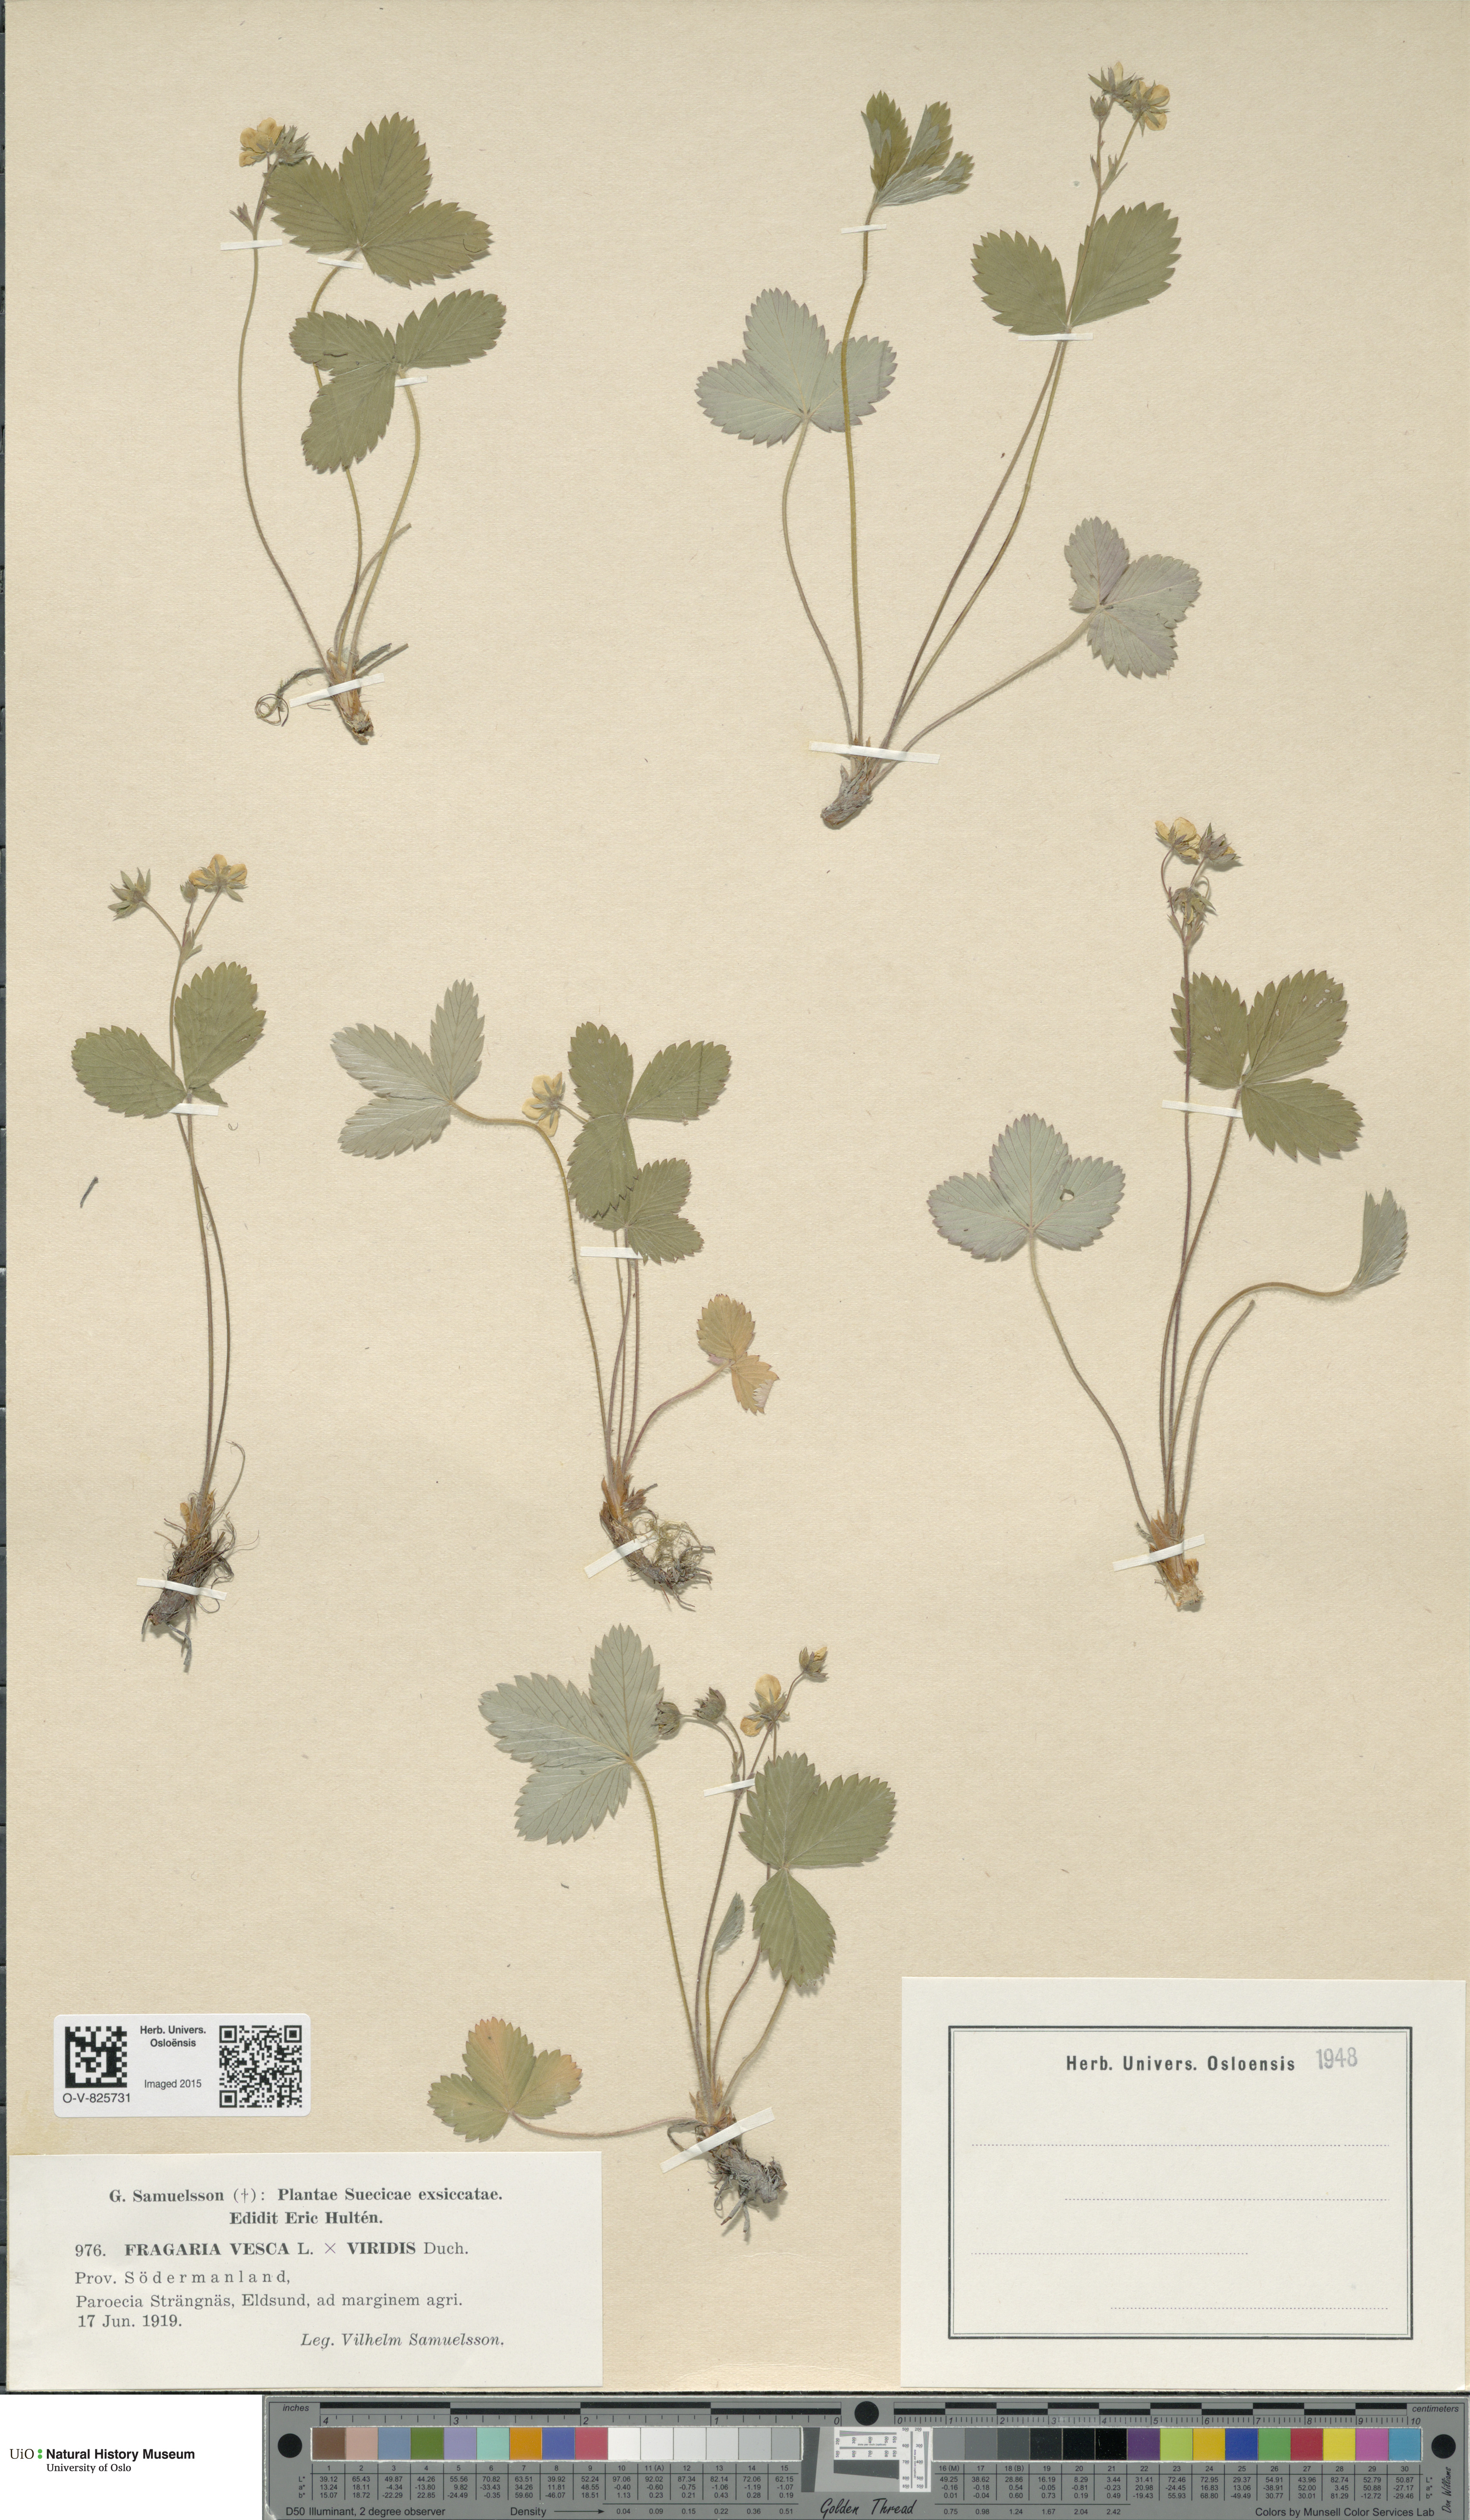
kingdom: Plantae
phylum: Tracheophyta
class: Magnoliopsida
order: Rosales
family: Rosaceae
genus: Fragaria
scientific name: Fragaria
